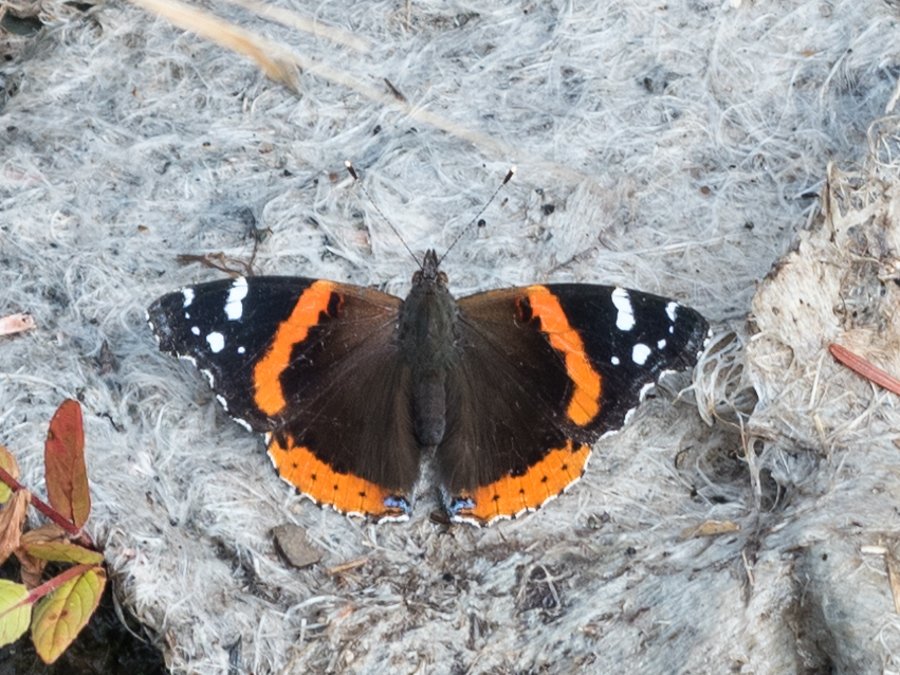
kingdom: Animalia
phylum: Arthropoda
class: Insecta
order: Lepidoptera
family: Nymphalidae
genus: Vanessa
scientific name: Vanessa atalanta
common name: Red Admiral
